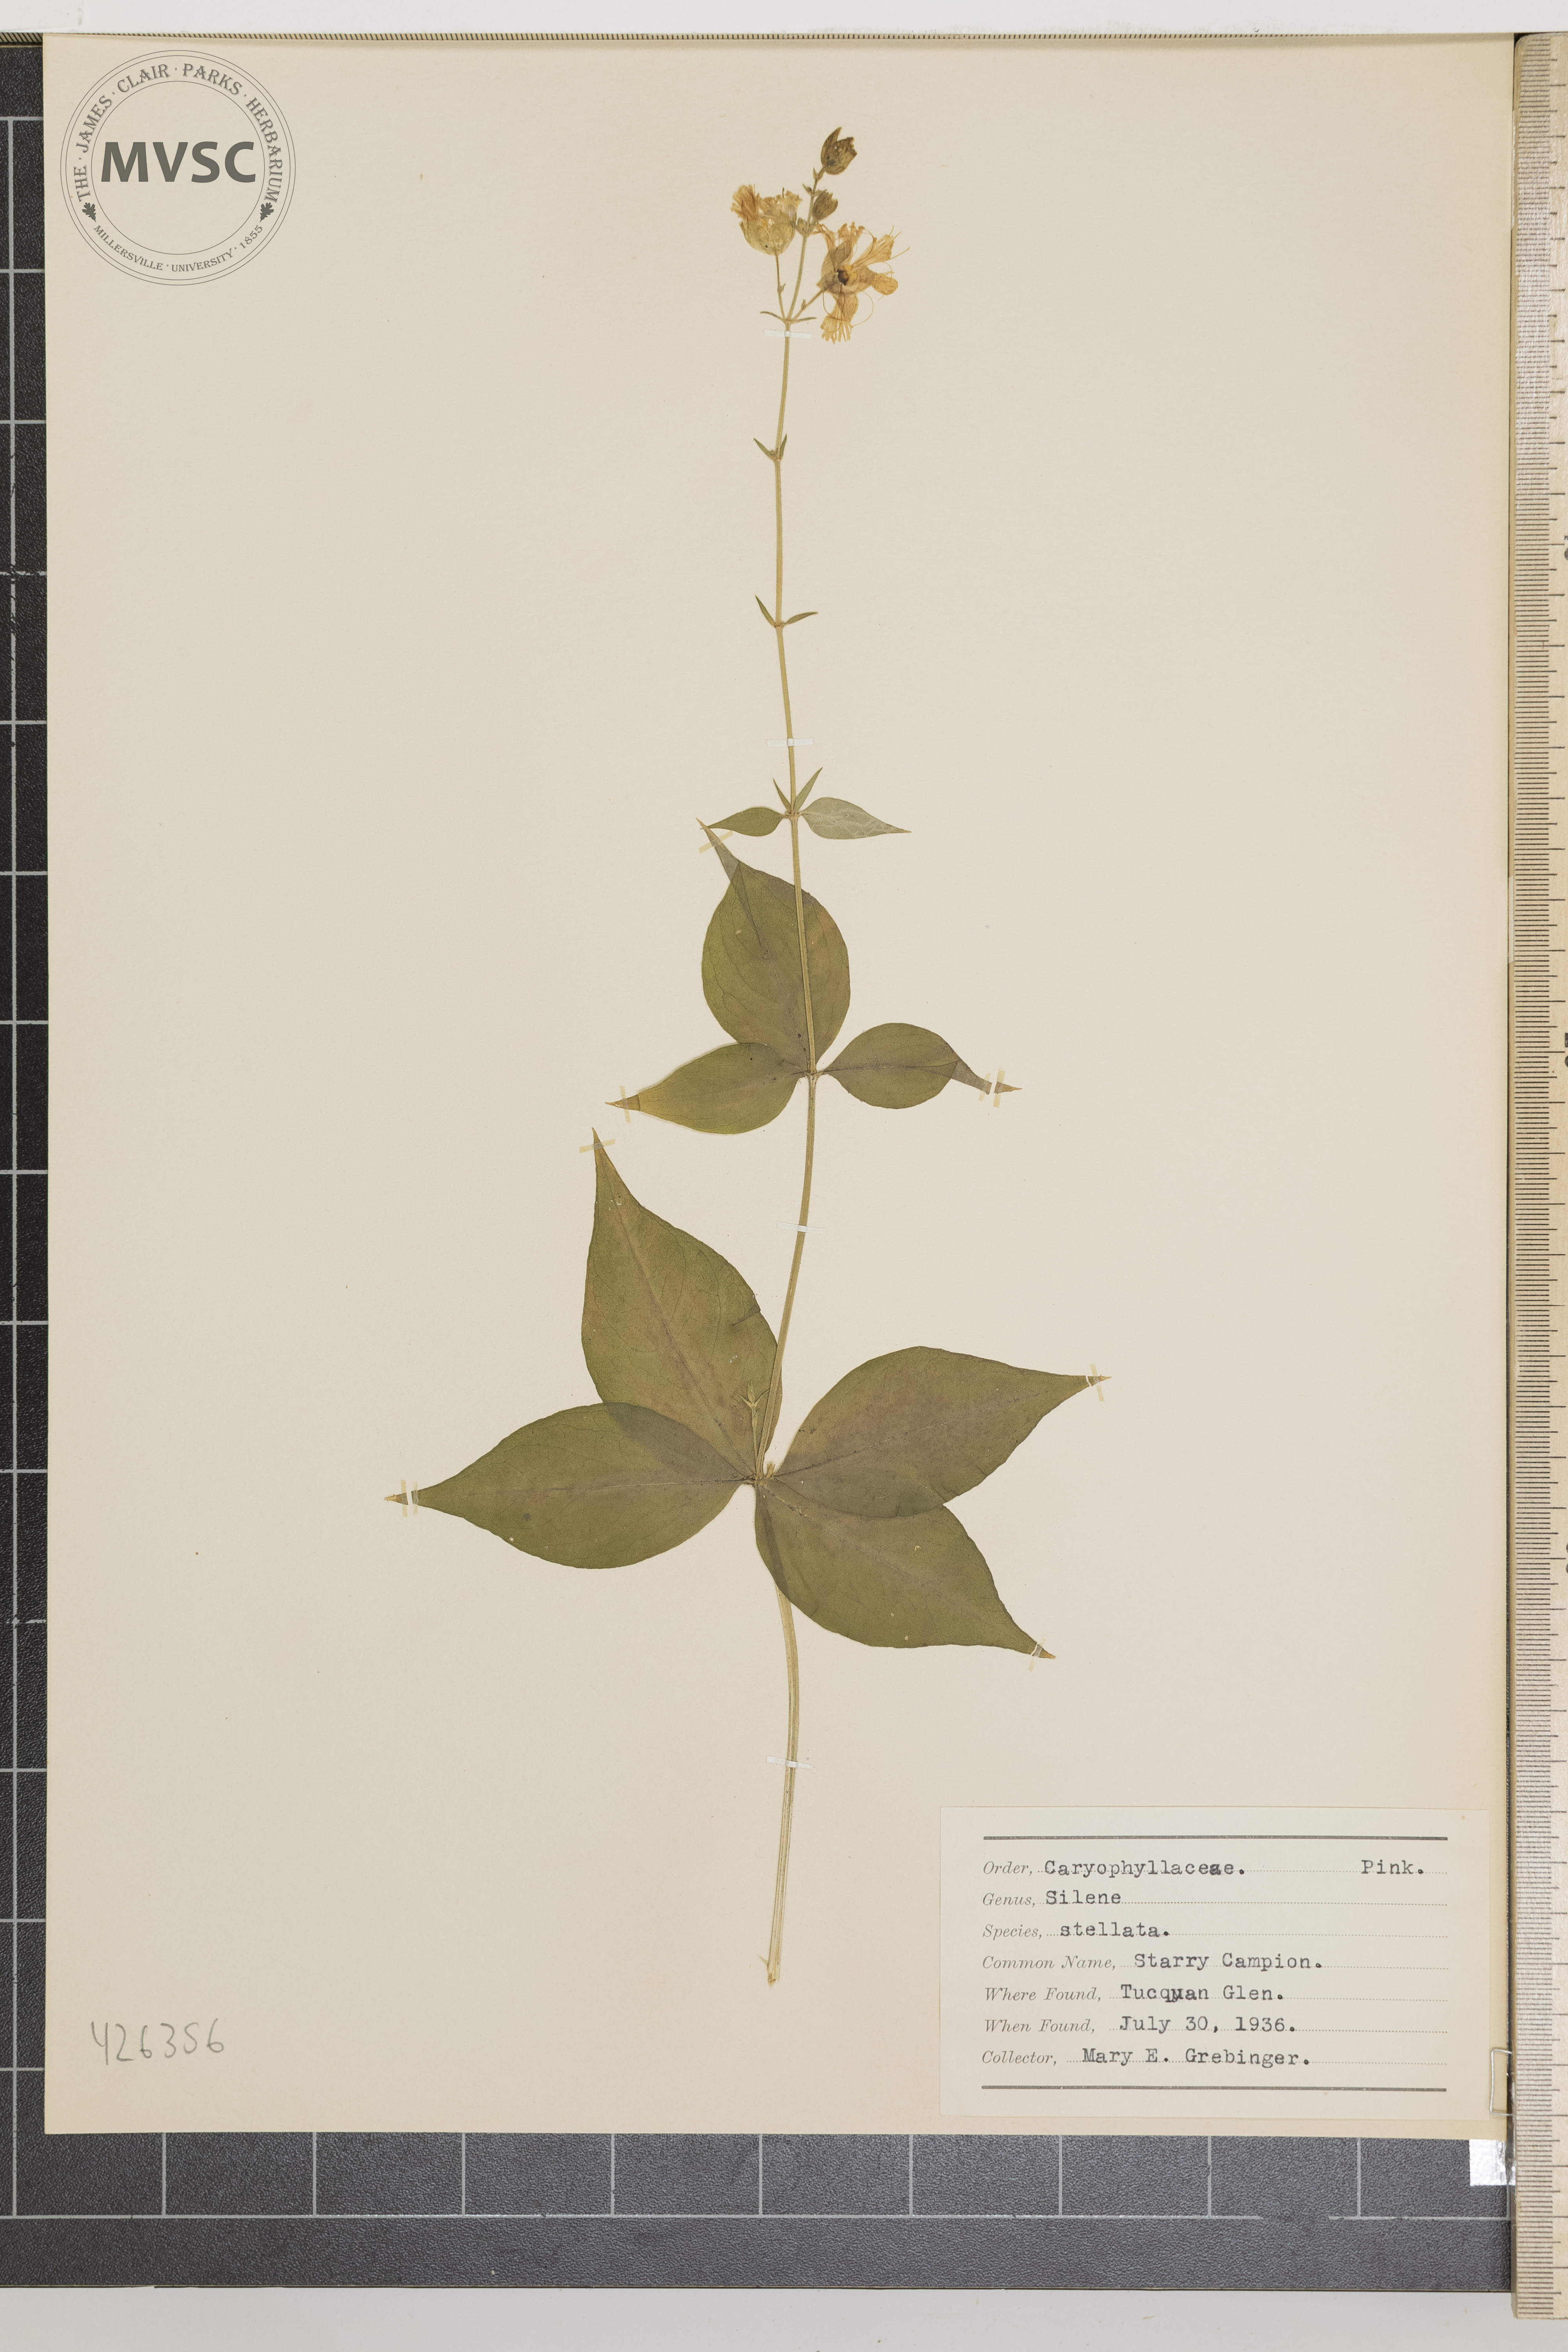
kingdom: Plantae
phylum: Tracheophyta
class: Magnoliopsida
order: Caryophyllales
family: Caryophyllaceae
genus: Silene
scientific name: Silene stellata
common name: Starry Campion
